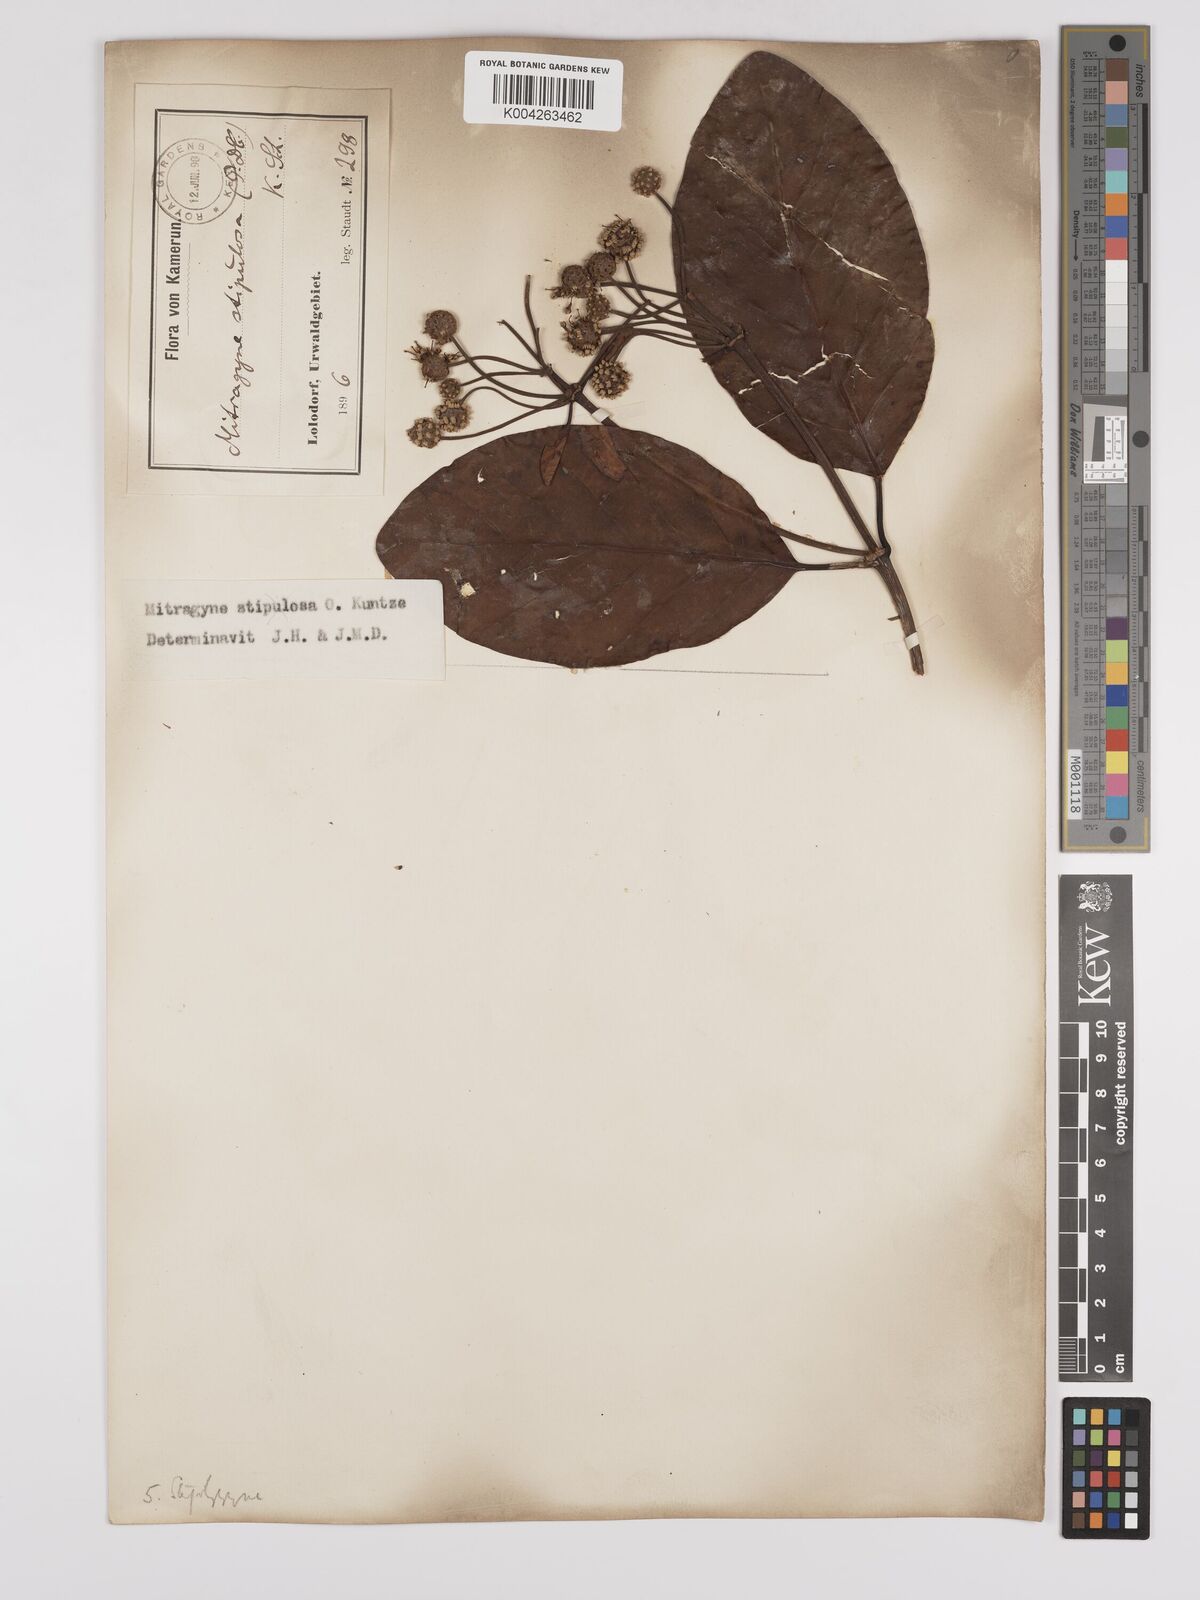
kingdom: Plantae
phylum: Tracheophyta
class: Magnoliopsida
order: Gentianales
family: Rubiaceae
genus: Mitragyna
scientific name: Mitragyna stipulosa
